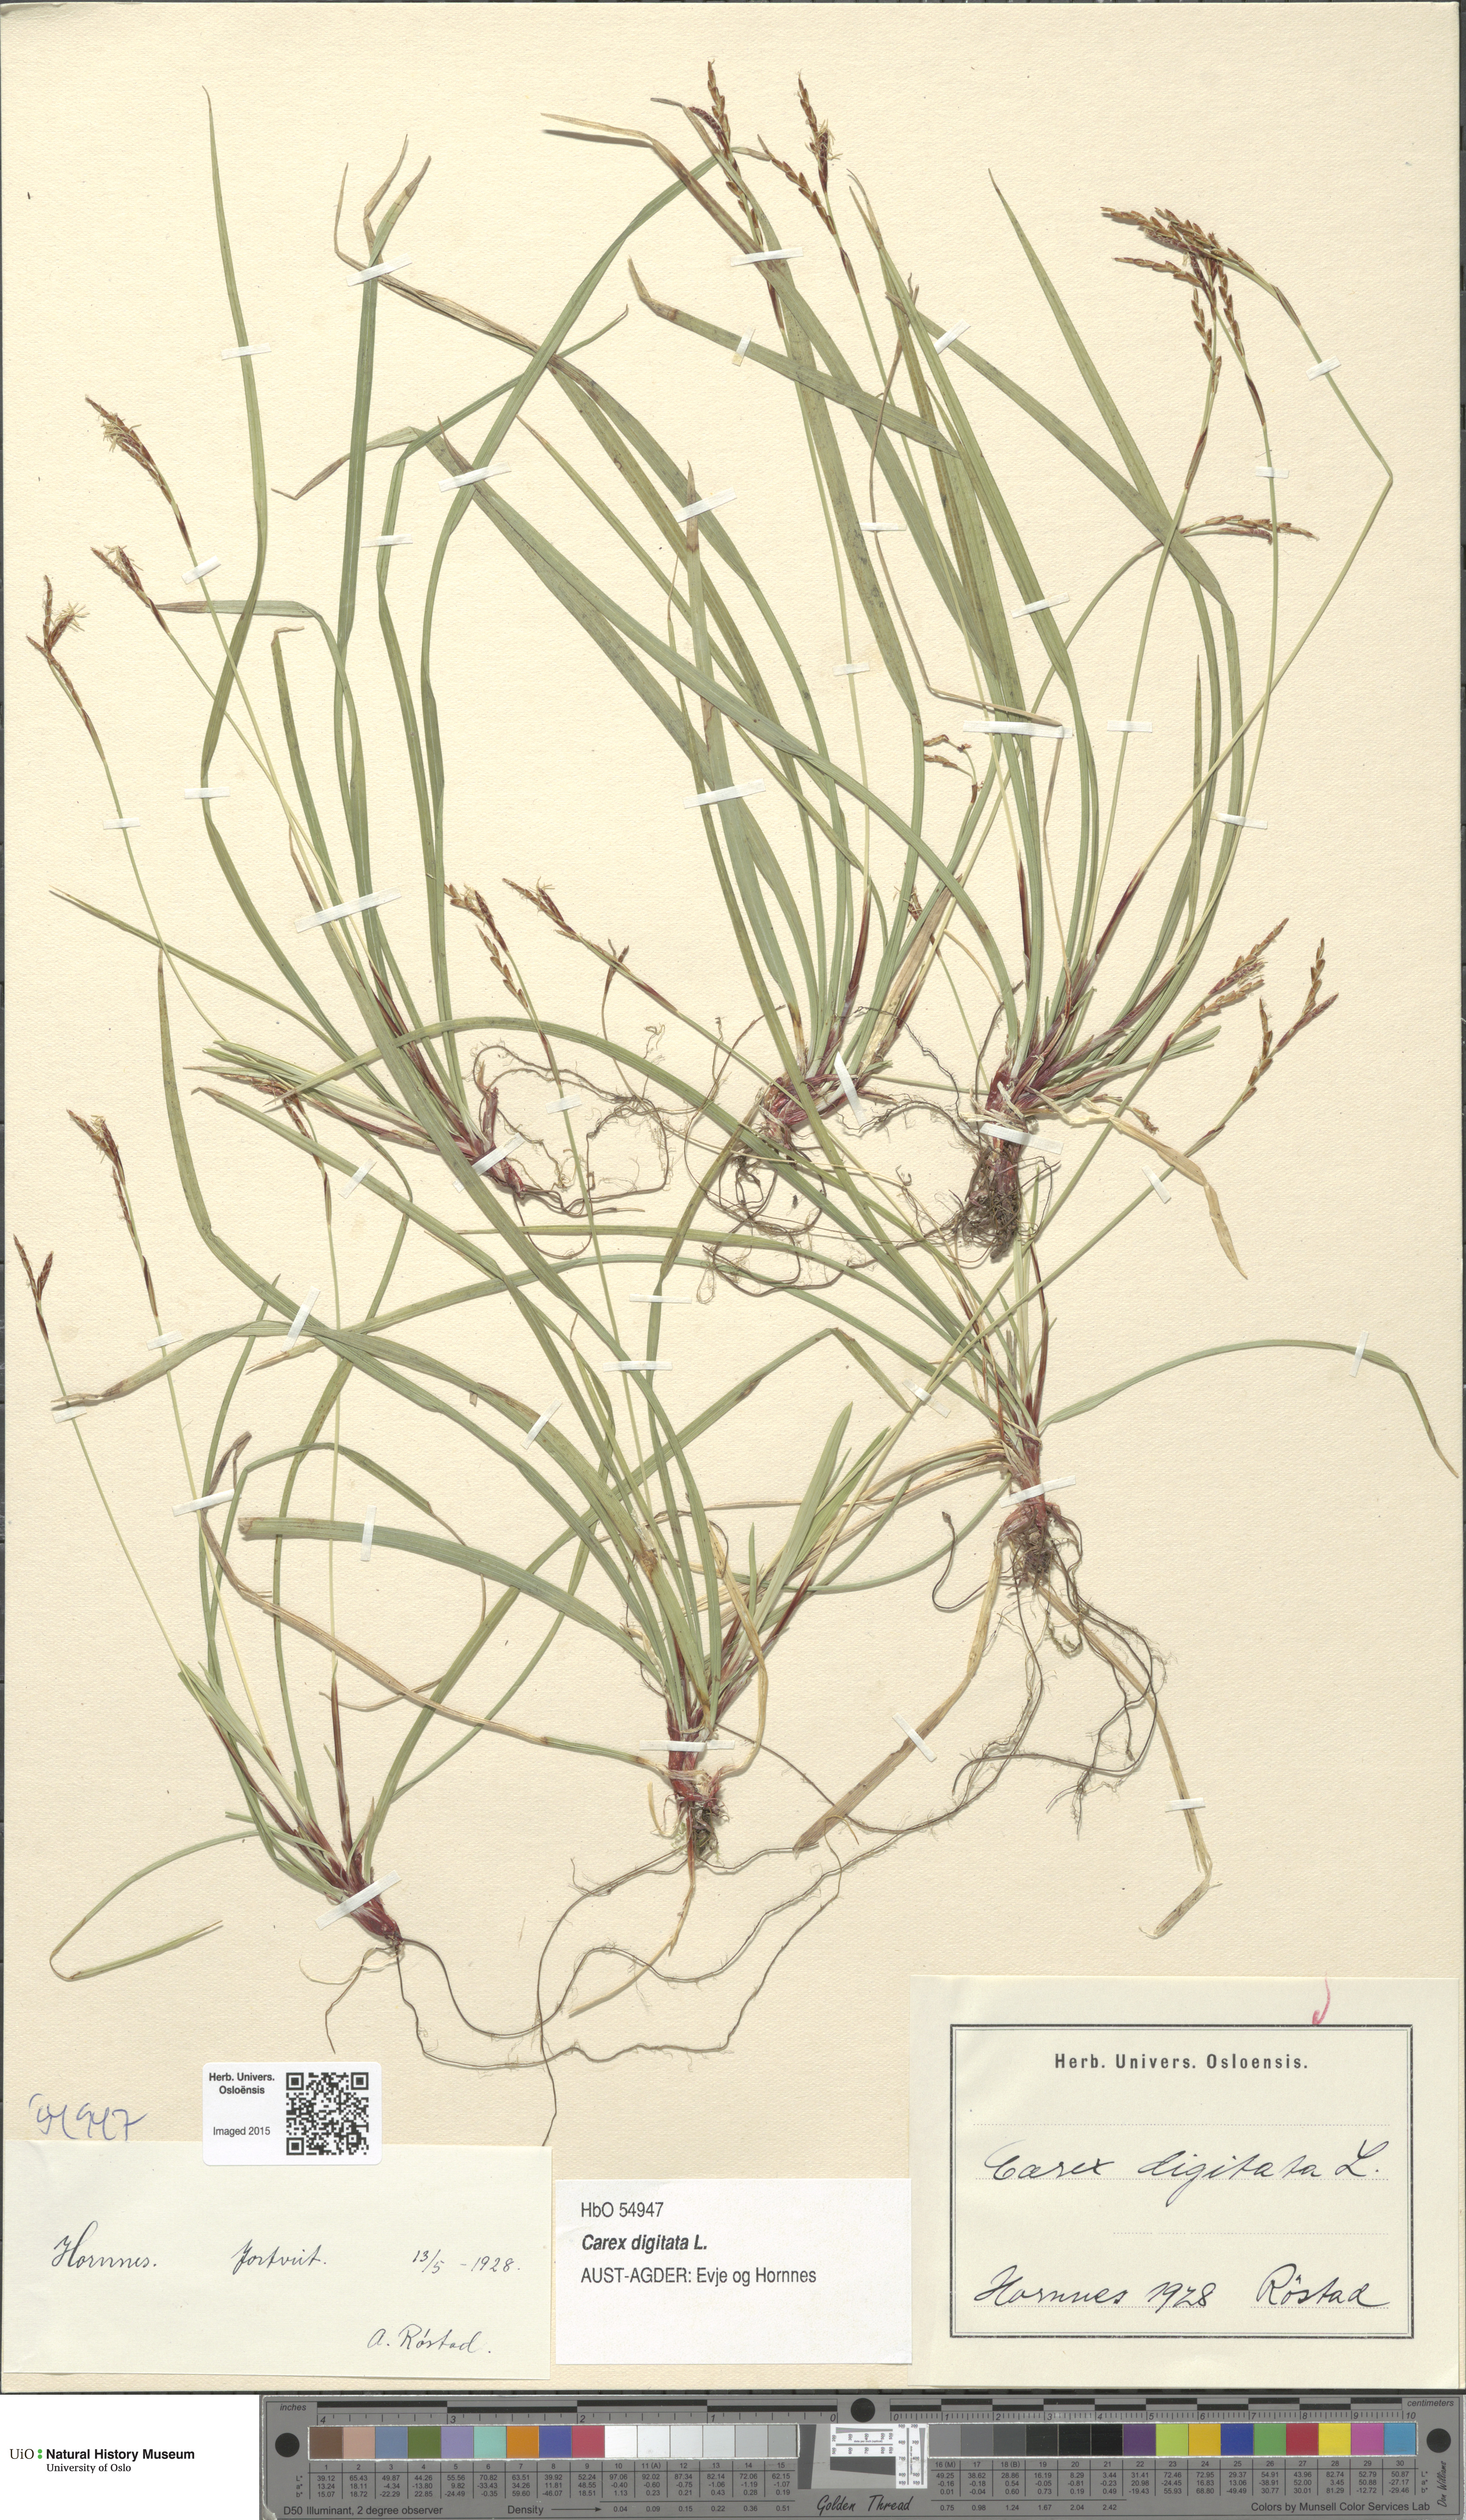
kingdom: Plantae
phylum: Tracheophyta
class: Liliopsida
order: Poales
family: Cyperaceae
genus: Carex
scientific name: Carex digitata
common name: Fingered sedge
